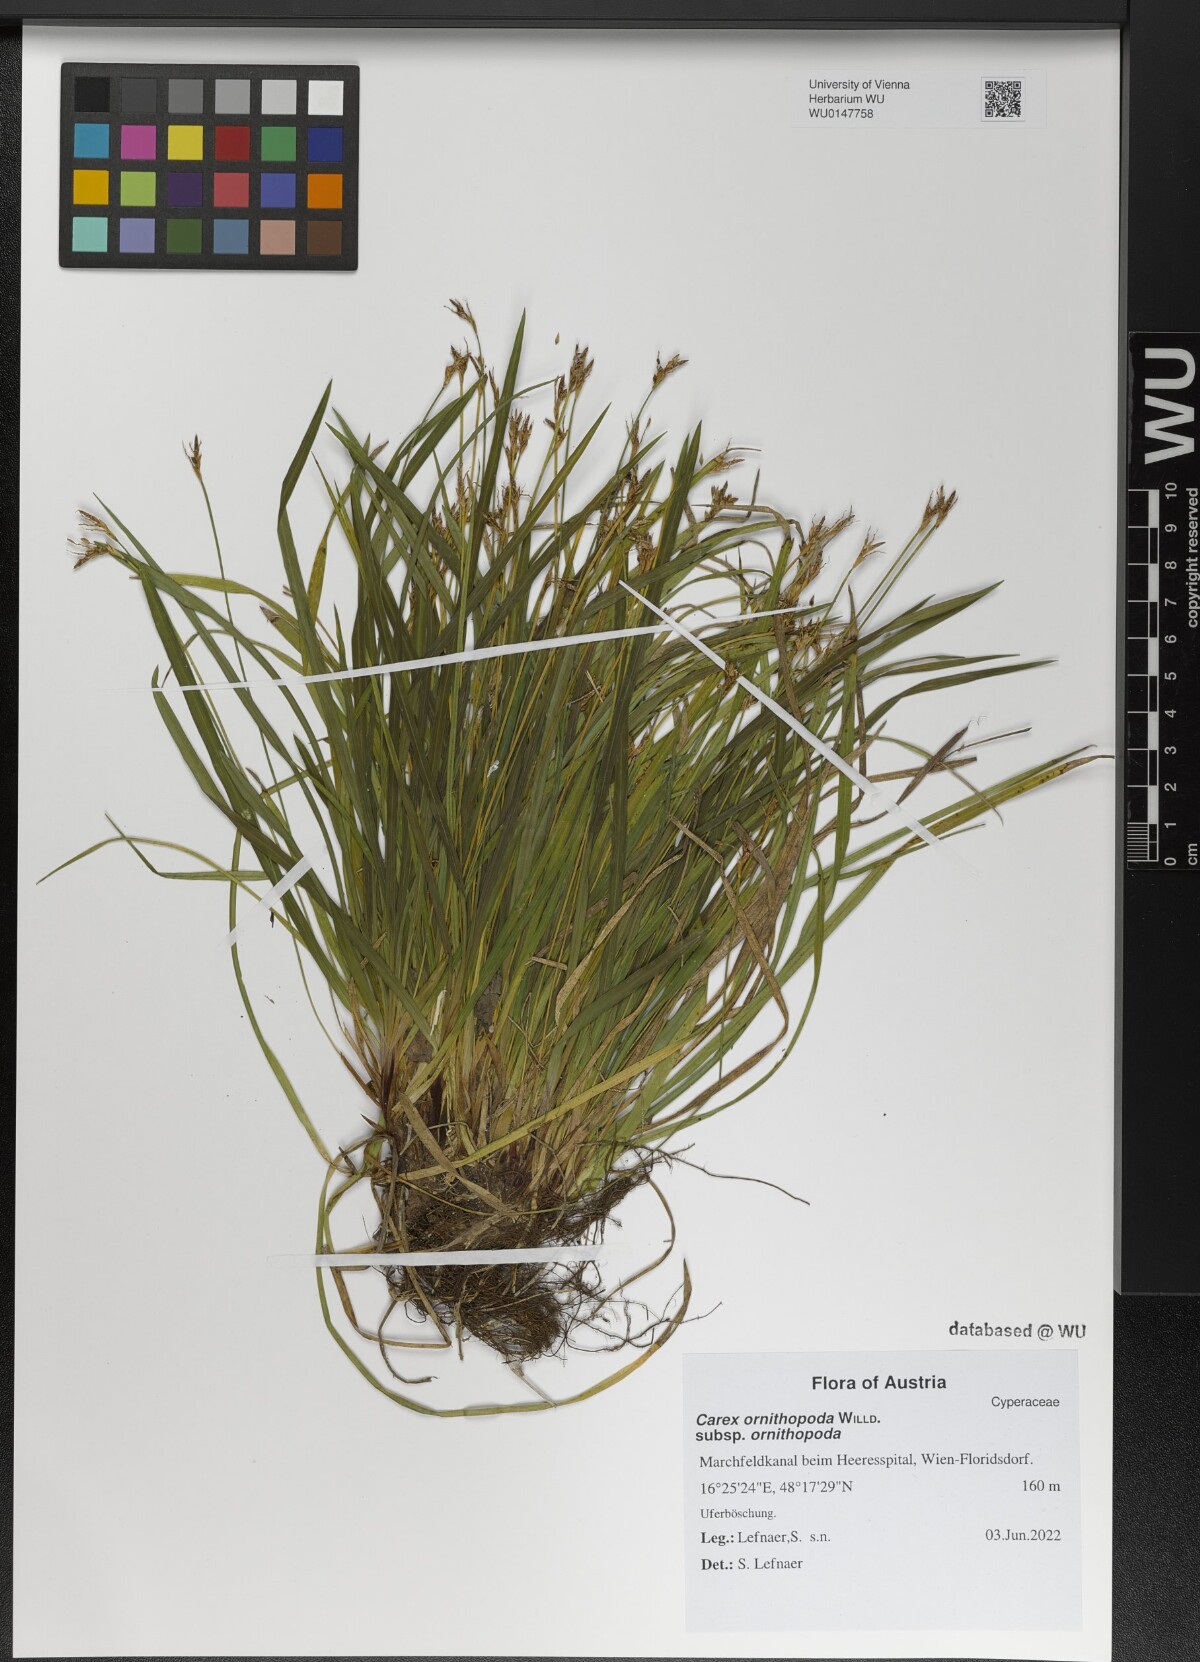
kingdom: Plantae
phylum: Tracheophyta
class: Liliopsida
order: Poales
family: Cyperaceae
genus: Carex
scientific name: Carex ornithopoda
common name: Bird's-foot sedge
